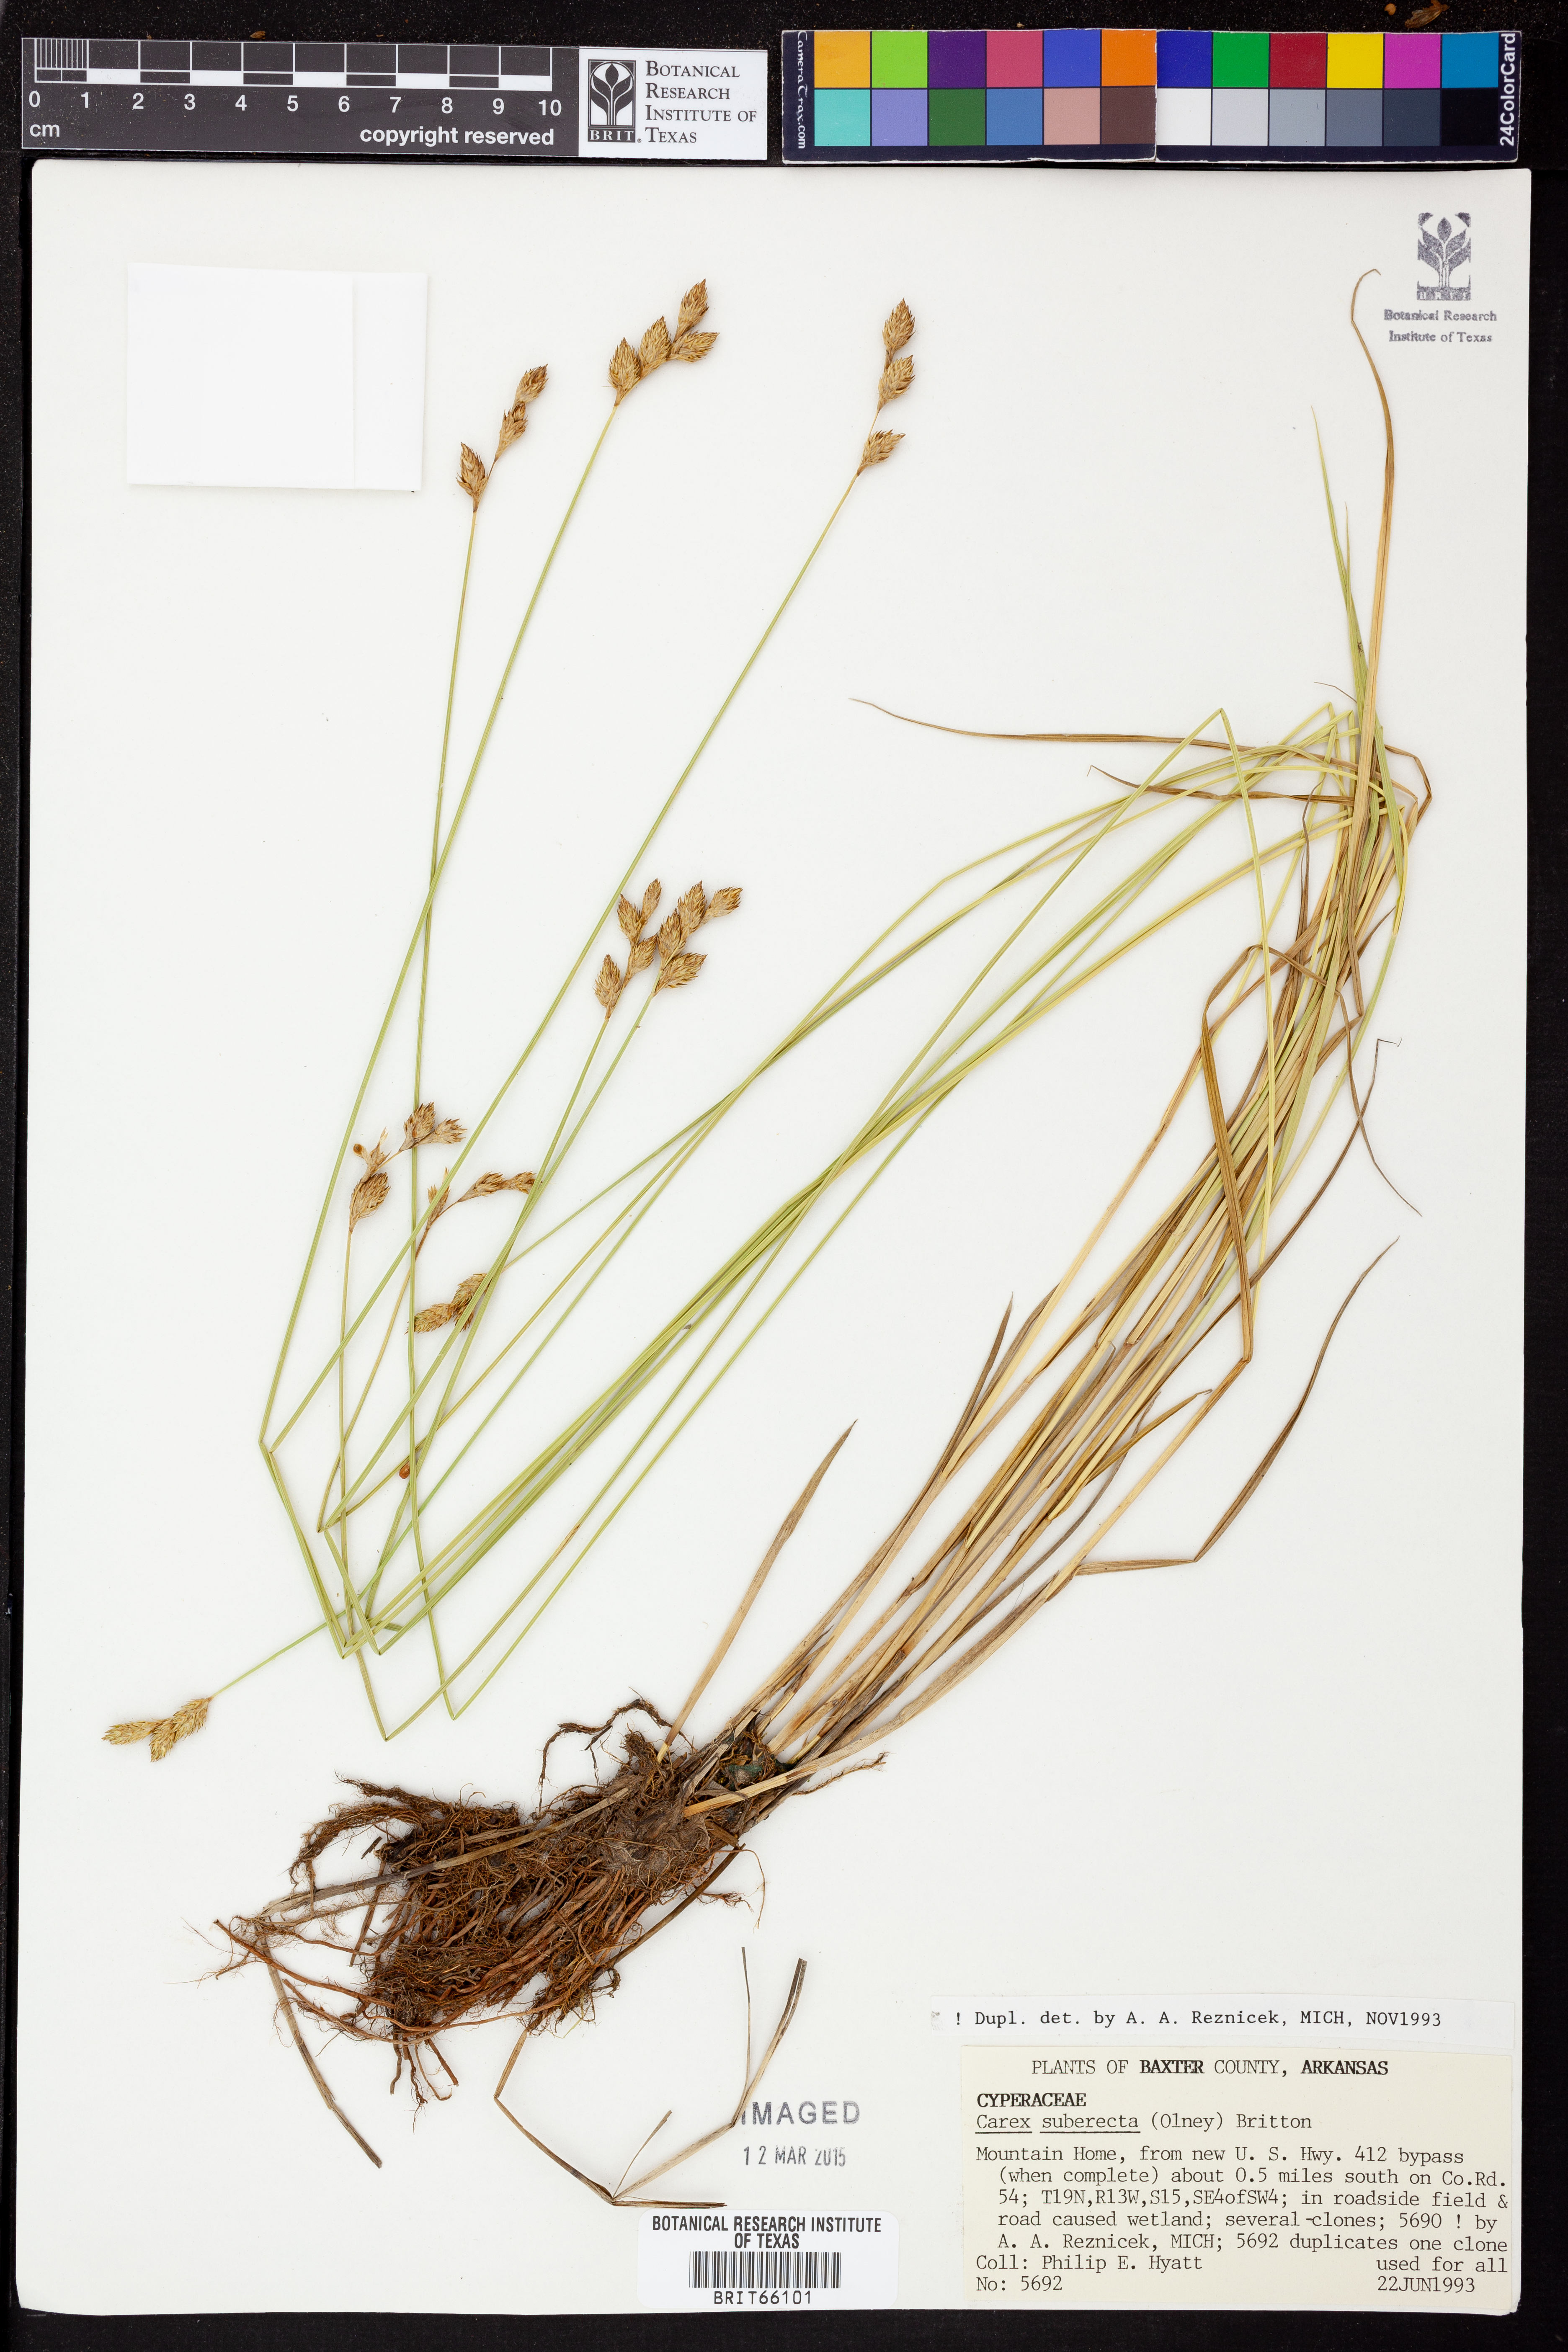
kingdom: Plantae
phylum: Tracheophyta
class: Liliopsida
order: Poales
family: Cyperaceae
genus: Carex
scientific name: Carex suberecta
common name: Prairie straw sedge
